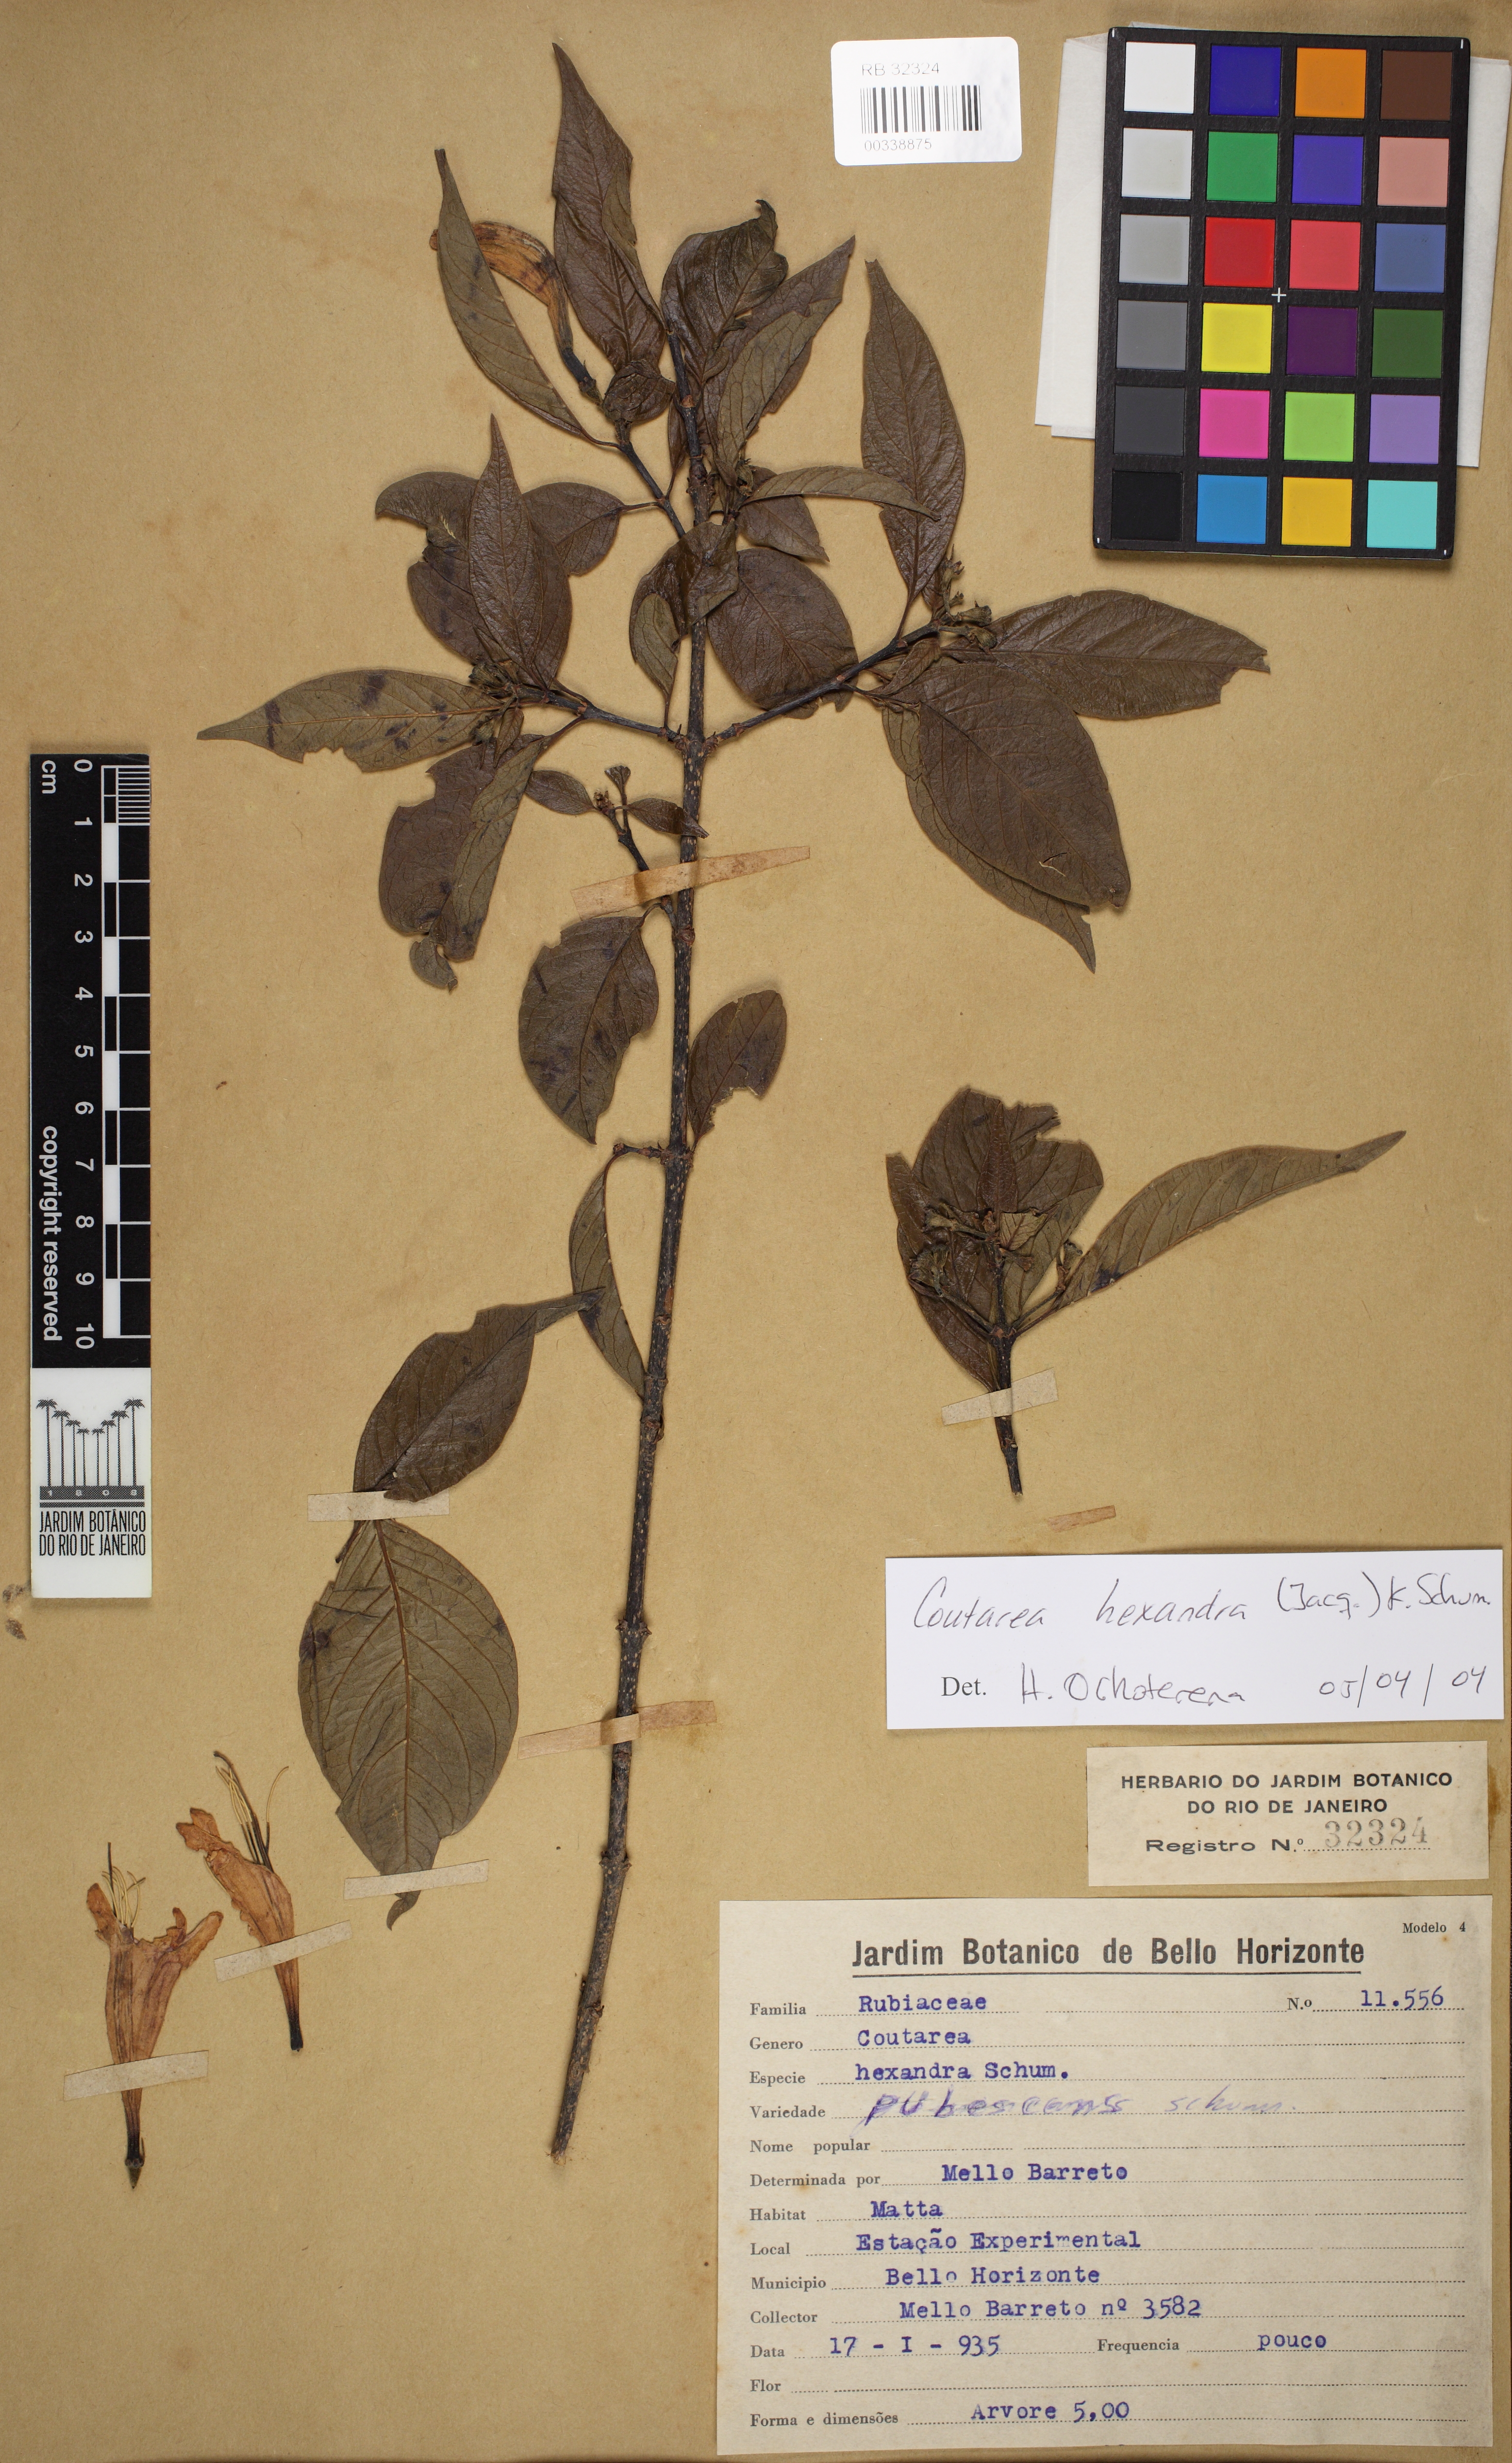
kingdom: Plantae
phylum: Tracheophyta
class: Magnoliopsida
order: Gentianales
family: Rubiaceae
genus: Coutarea
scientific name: Coutarea hexandra
